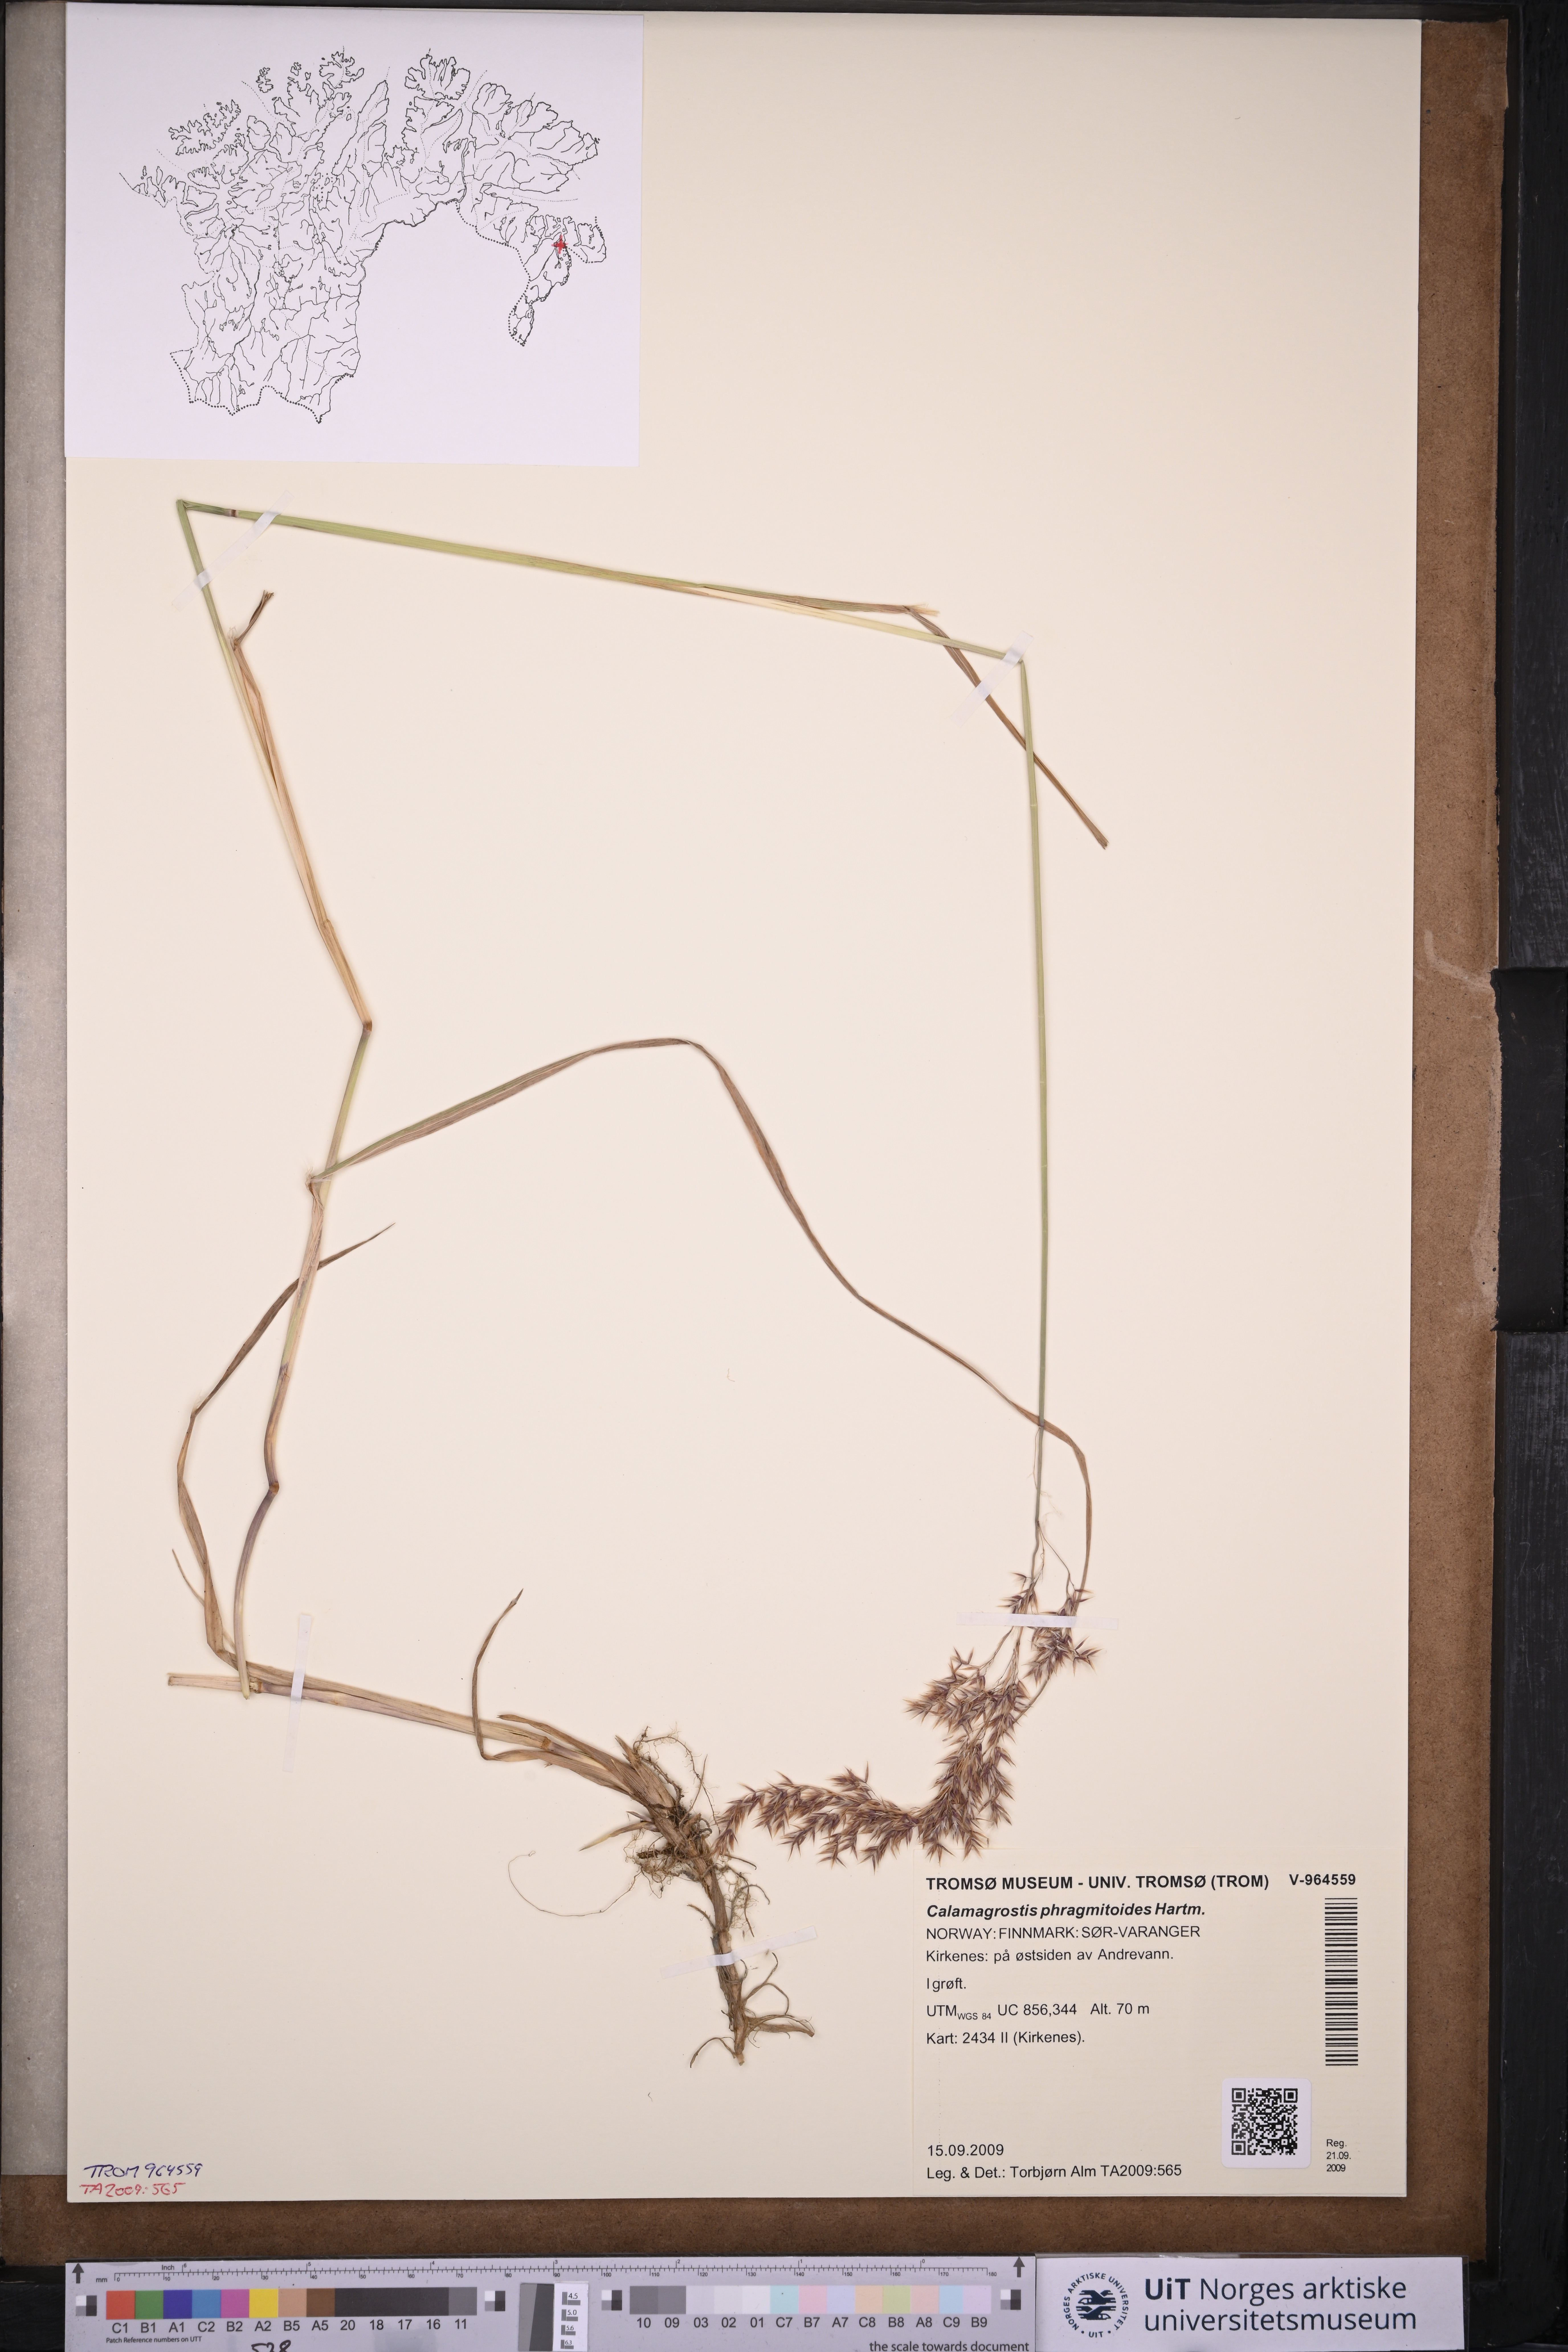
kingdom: Plantae
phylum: Tracheophyta
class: Liliopsida
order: Poales
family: Poaceae
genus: Calamagrostis
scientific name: Calamagrostis purpurea
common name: Scandinavian small-reed
